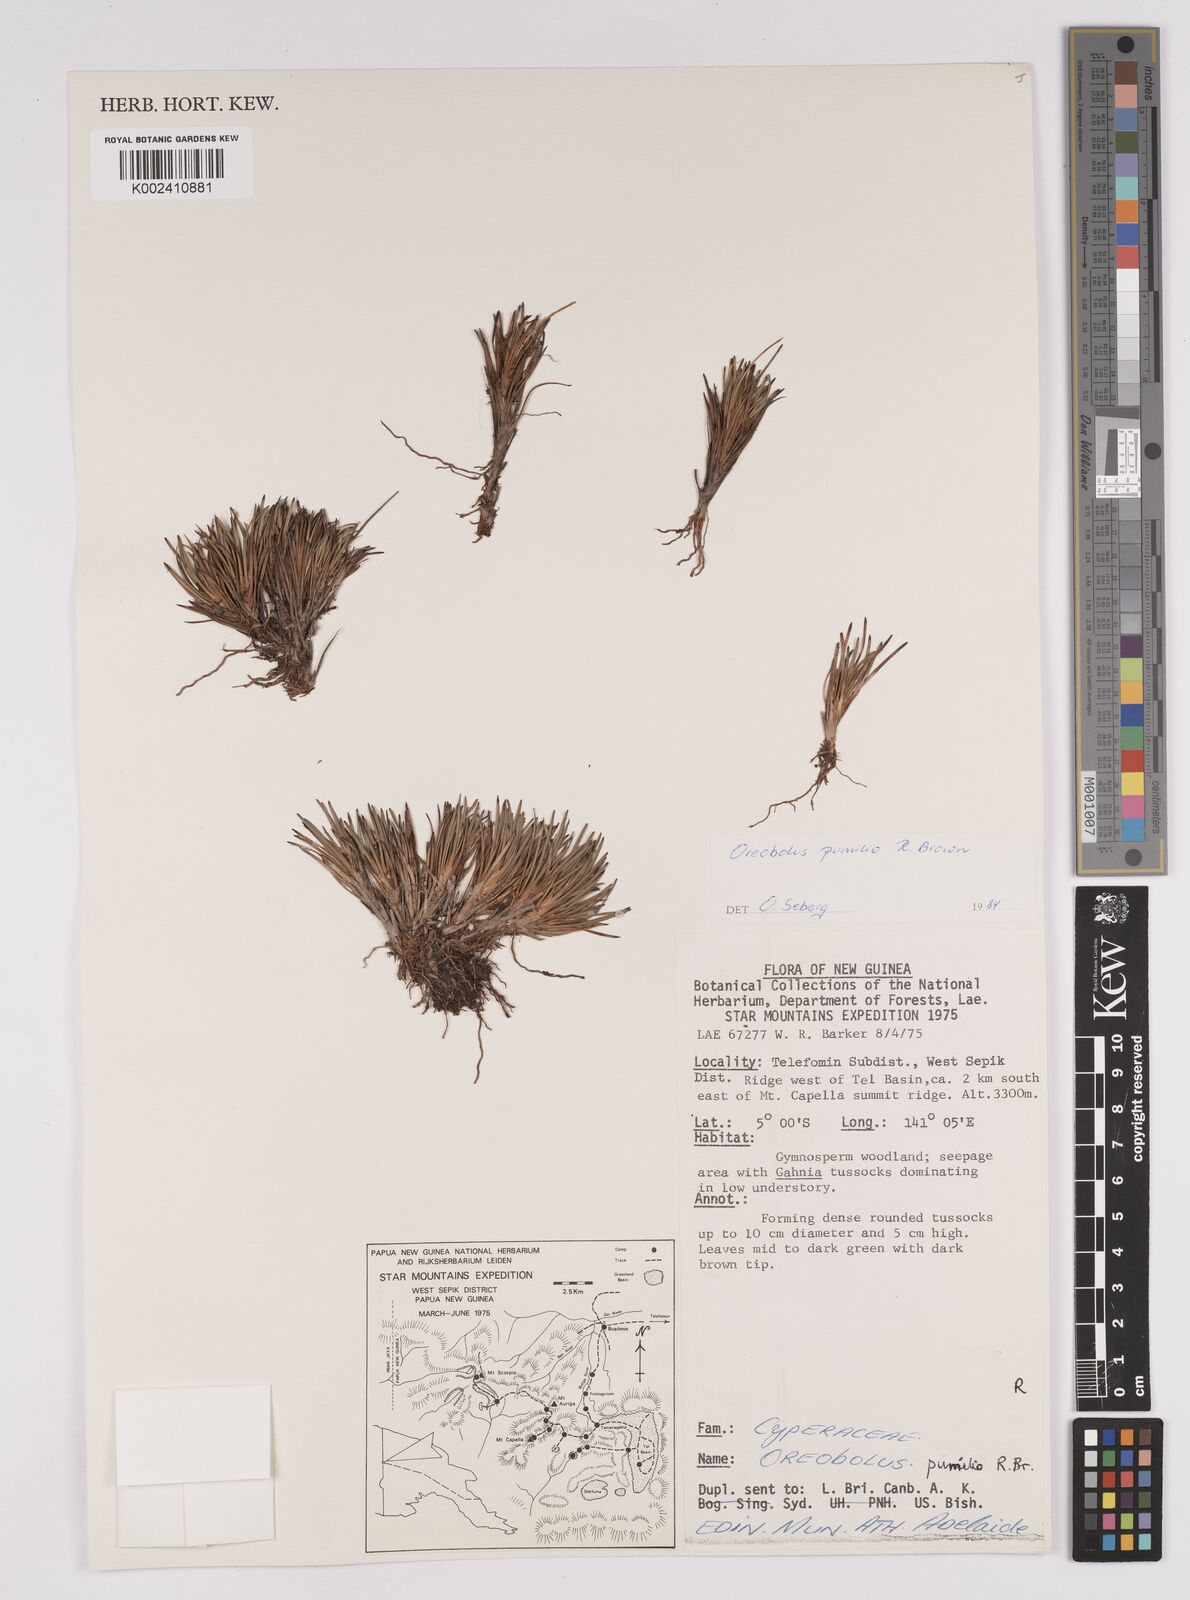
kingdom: Plantae
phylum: Tracheophyta
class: Liliopsida
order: Poales
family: Cyperaceae
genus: Oreobolus
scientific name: Oreobolus pumilio
